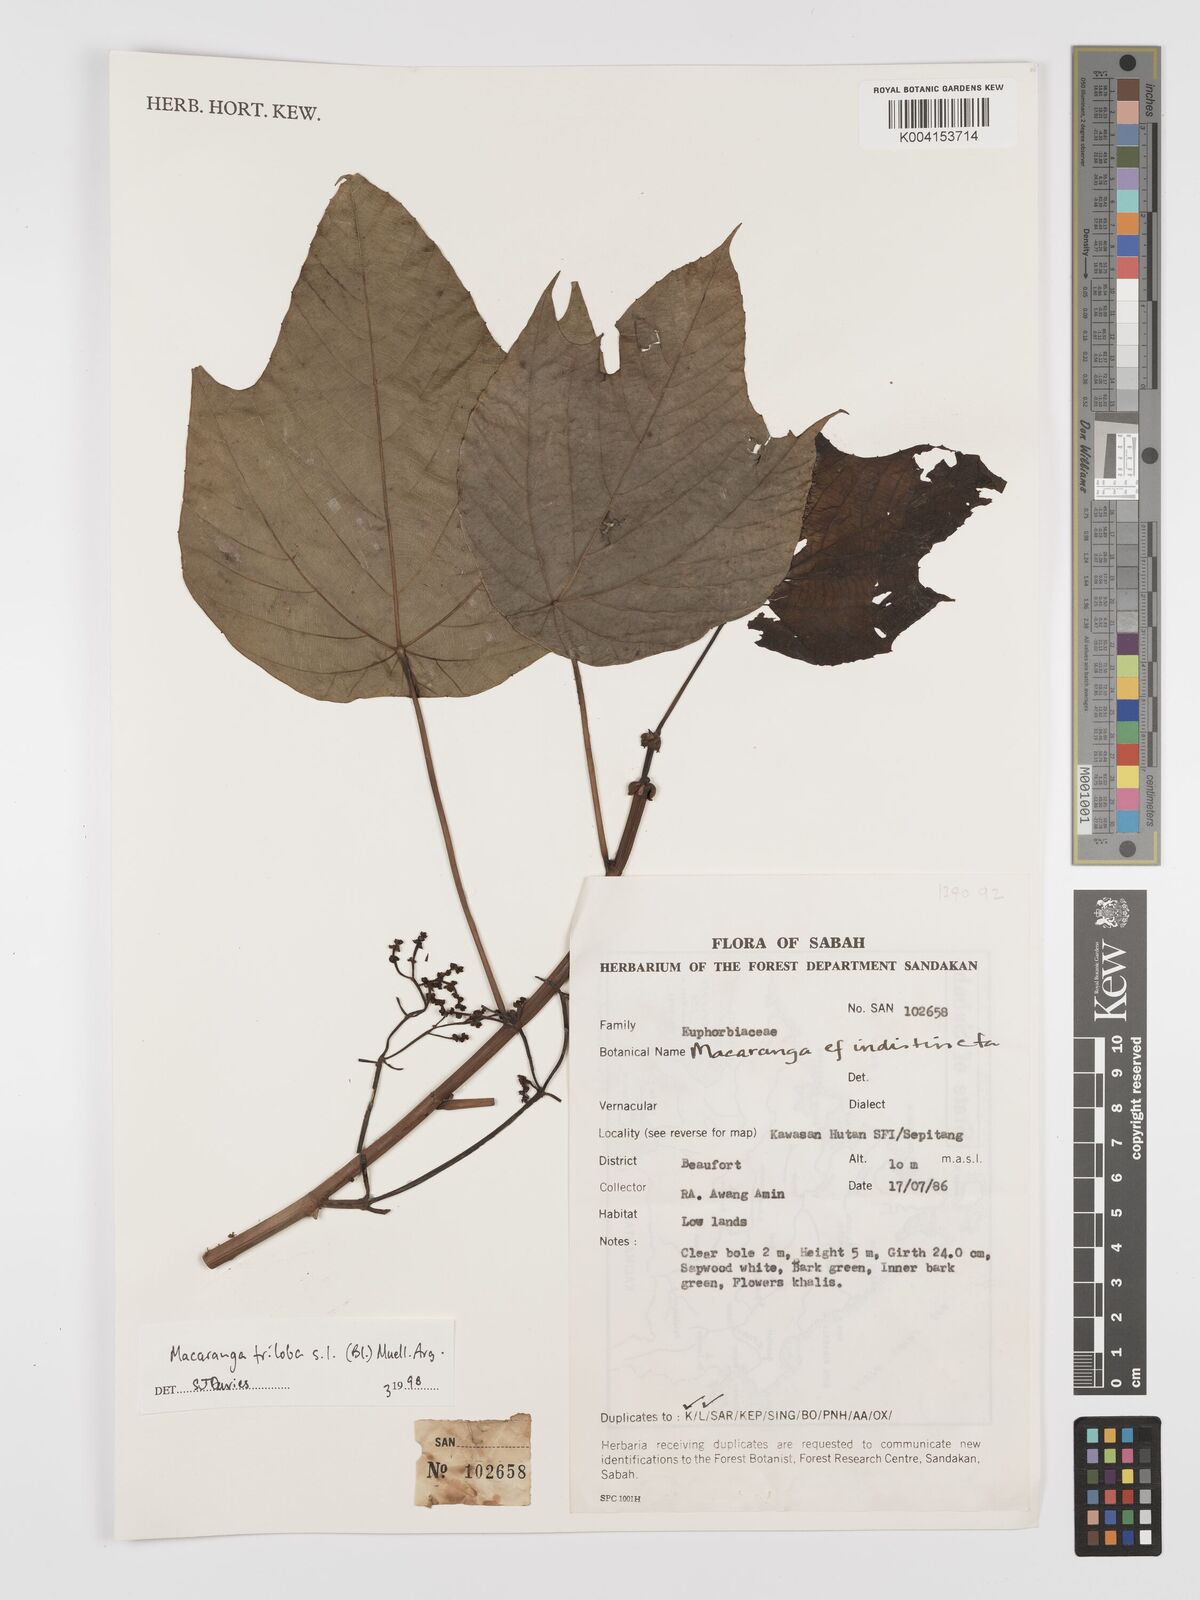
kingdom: Plantae
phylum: Tracheophyta
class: Magnoliopsida
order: Malpighiales
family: Euphorbiaceae
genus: Macaranga
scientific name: Macaranga triloba
